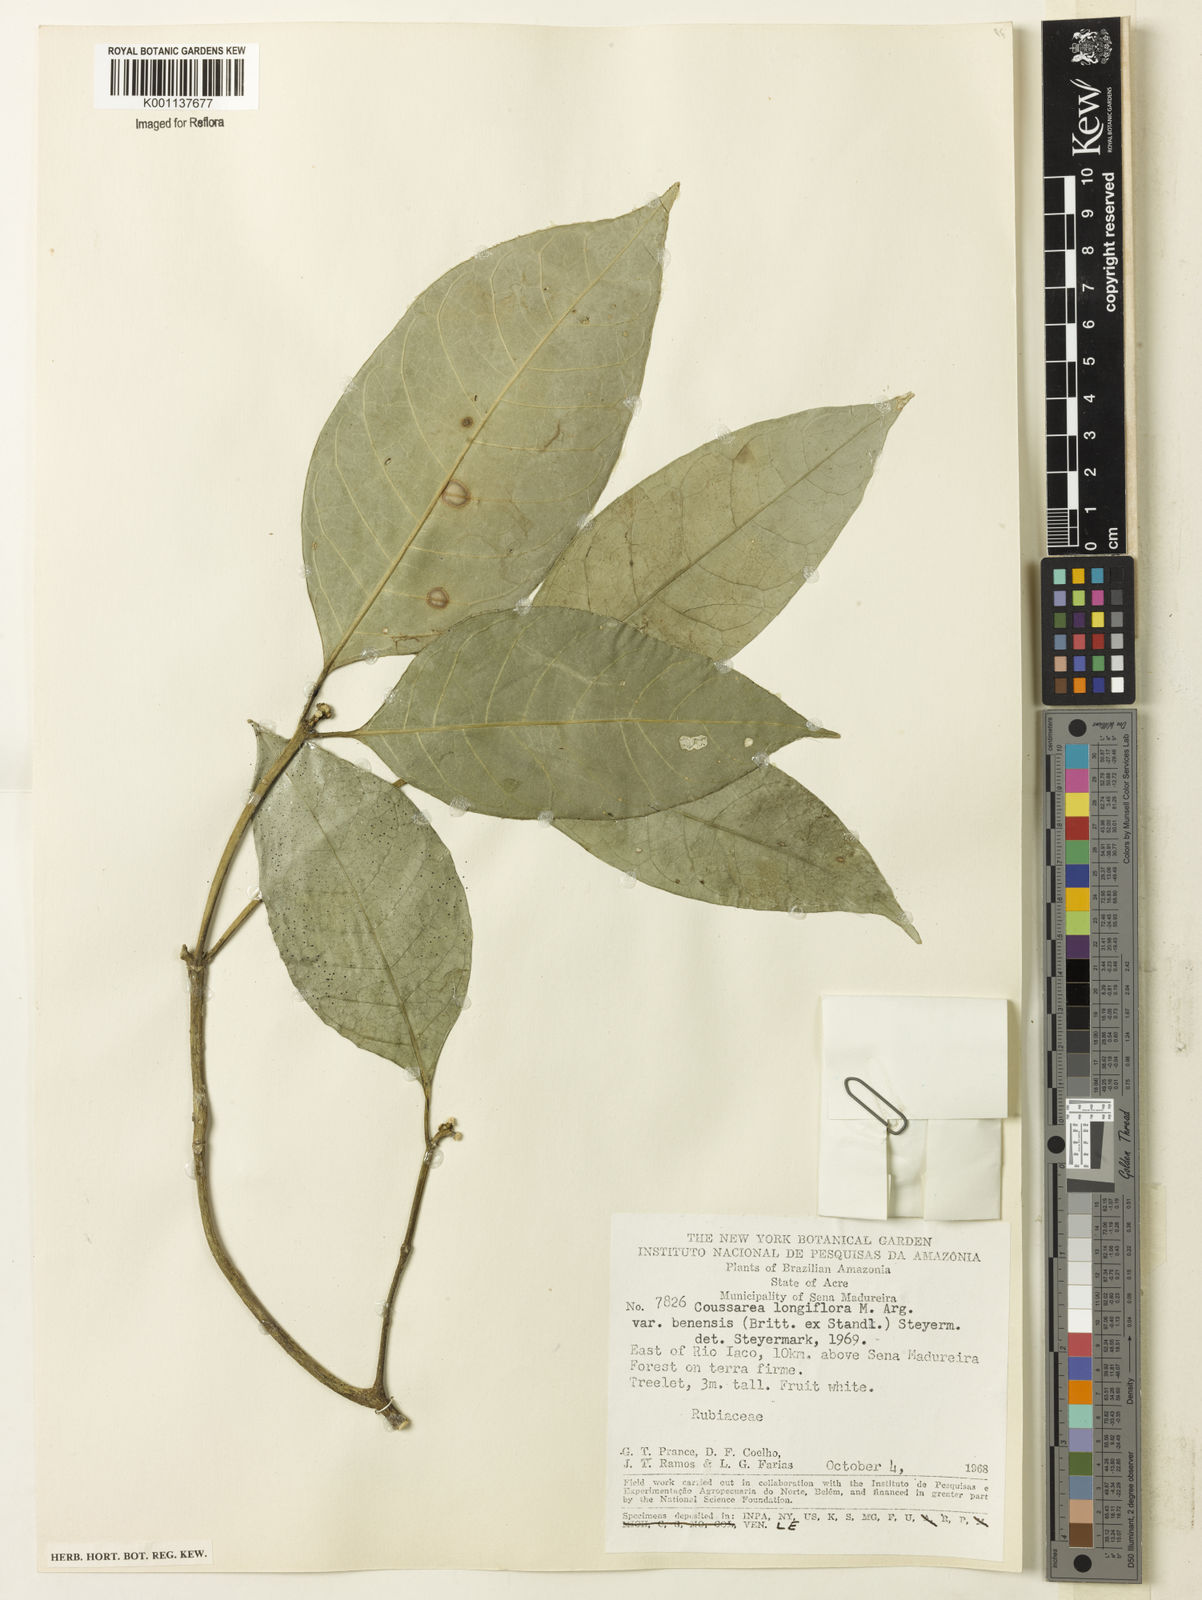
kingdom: Plantae
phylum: Tracheophyta
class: Magnoliopsida
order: Gentianales
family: Rubiaceae
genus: Coussarea
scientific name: Coussarea
